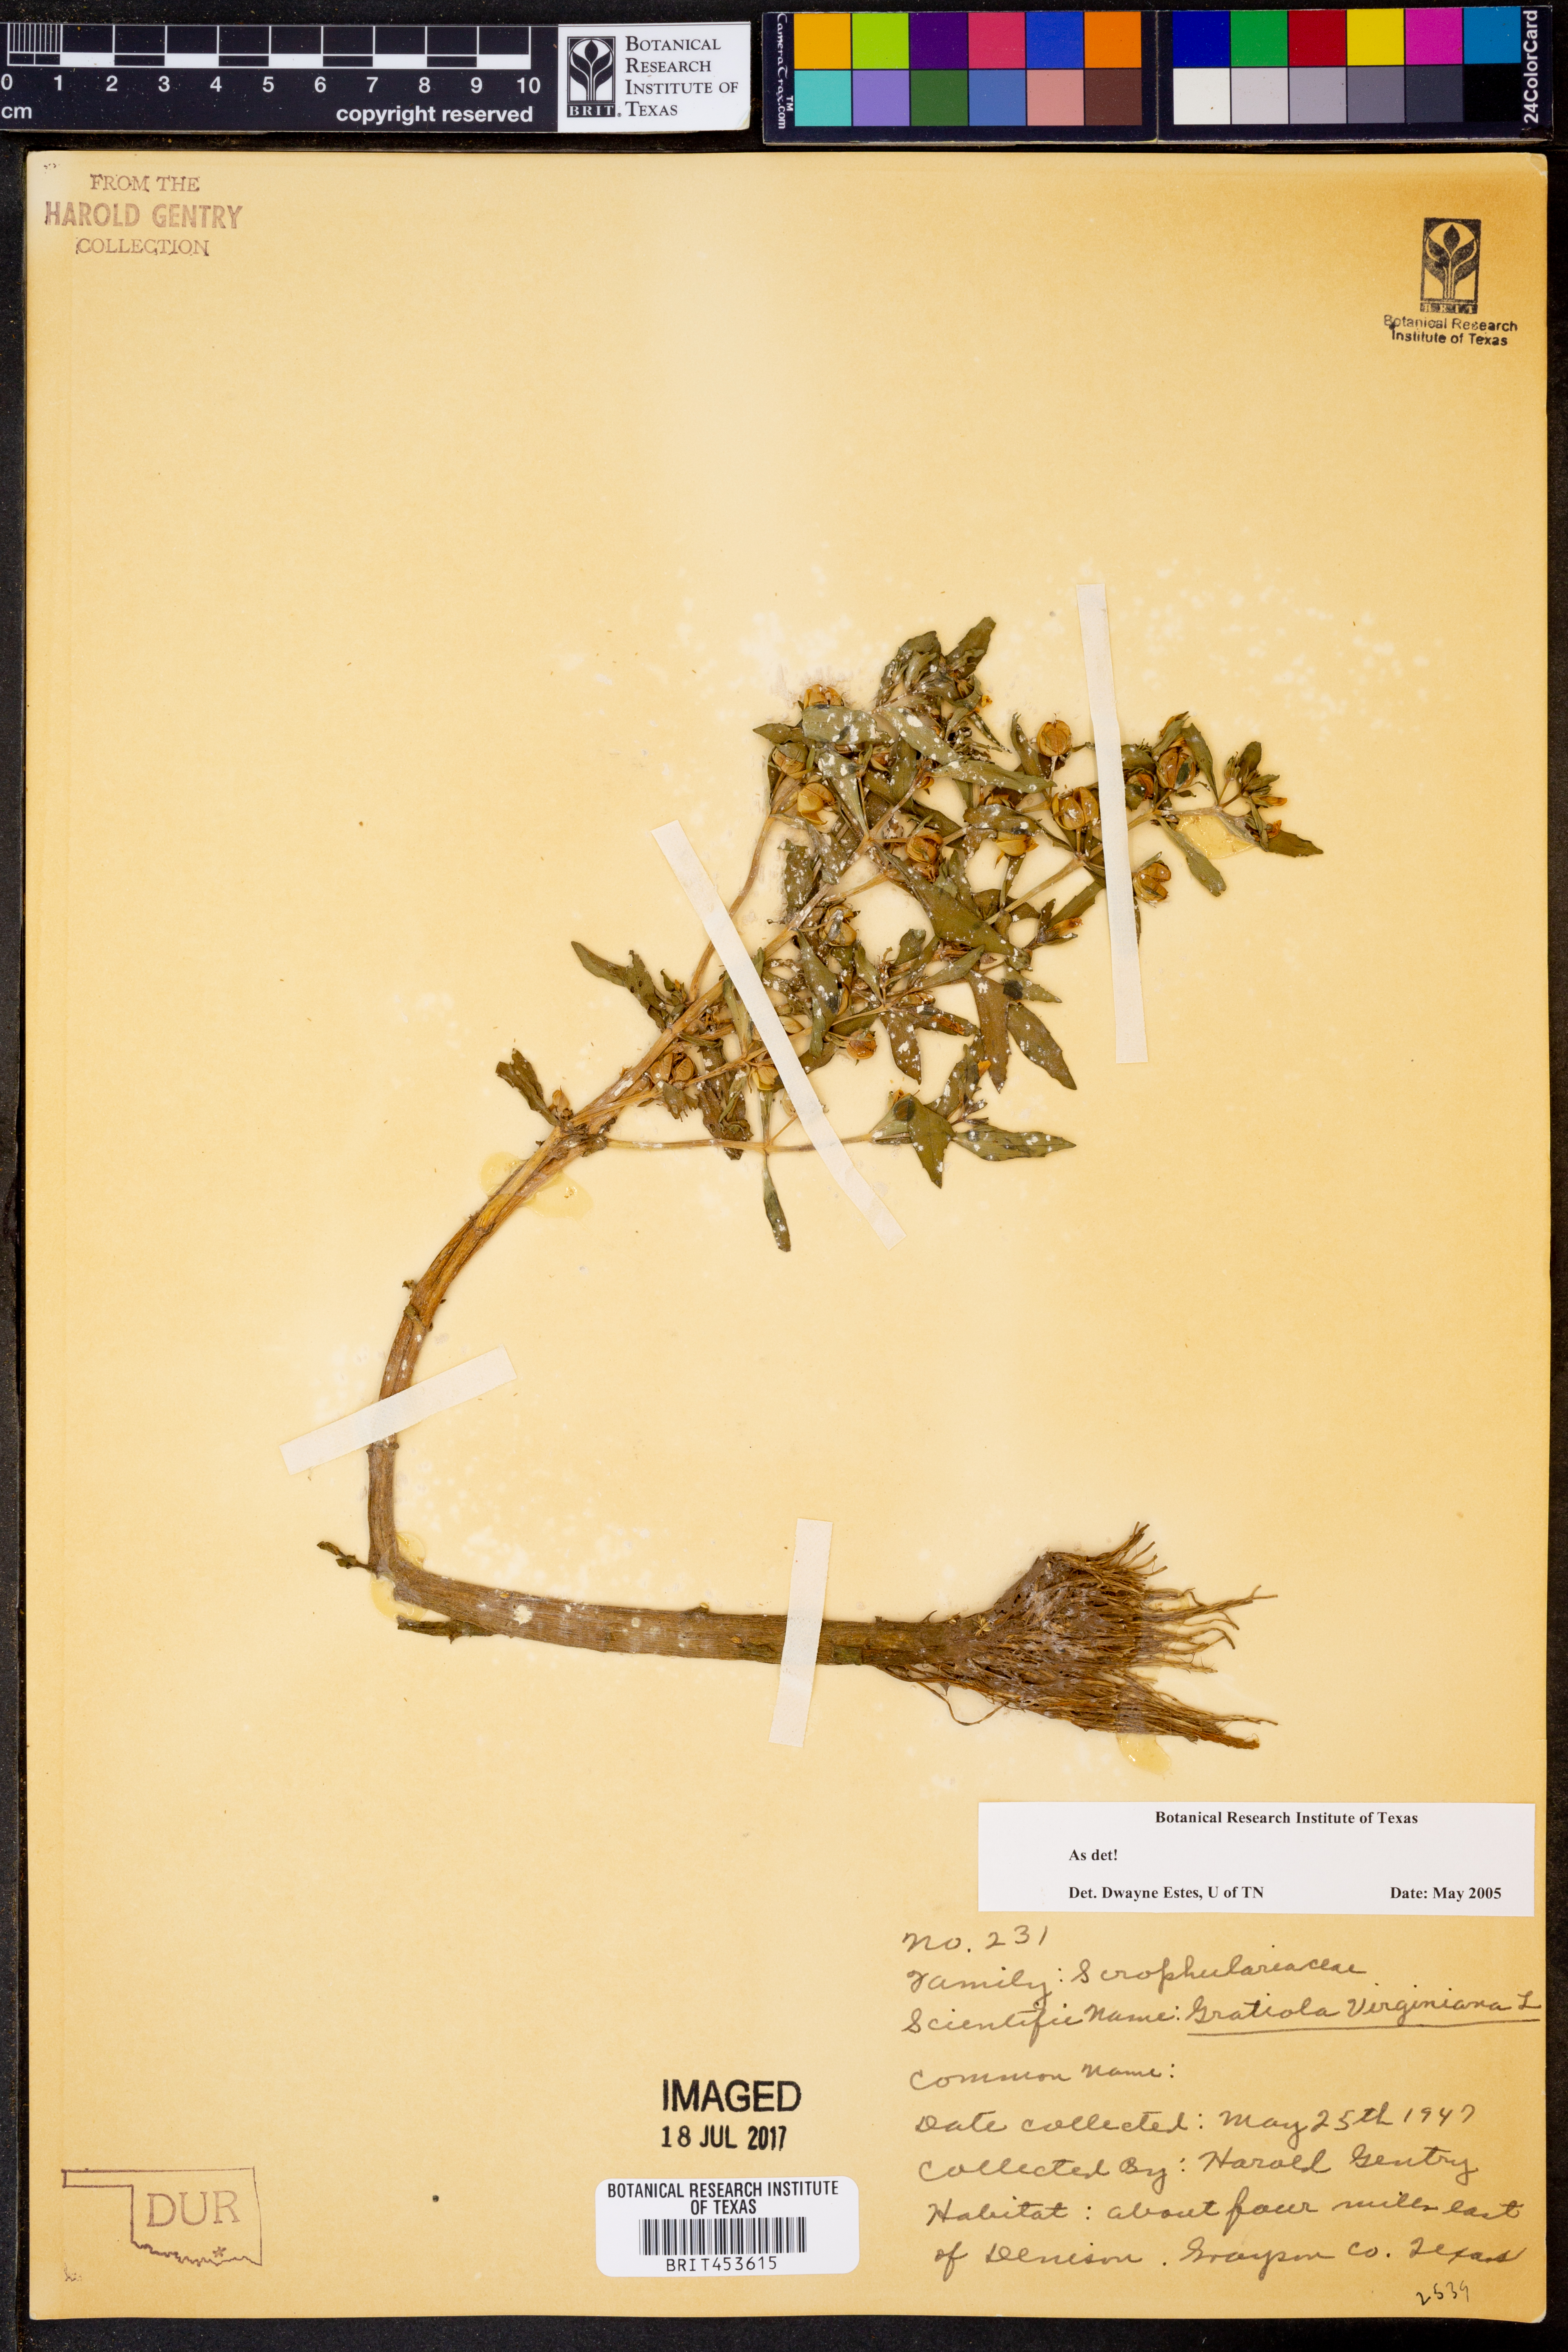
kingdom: Plantae
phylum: Tracheophyta
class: Magnoliopsida
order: Lamiales
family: Plantaginaceae
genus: Gratiola
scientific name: Gratiola virginiana
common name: Roundfruit hedgehyssop
